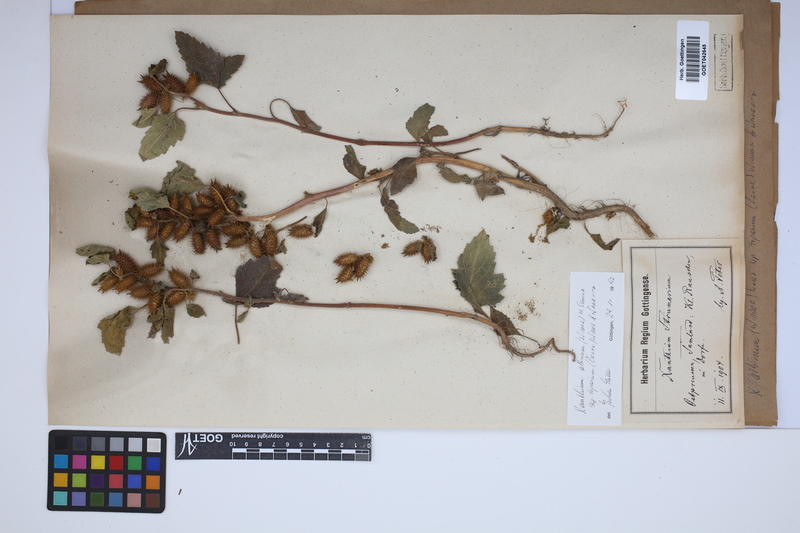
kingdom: Plantae
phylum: Tracheophyta
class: Magnoliopsida
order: Asterales
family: Asteraceae
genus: Xanthium
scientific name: Xanthium orientale
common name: Californian burr
